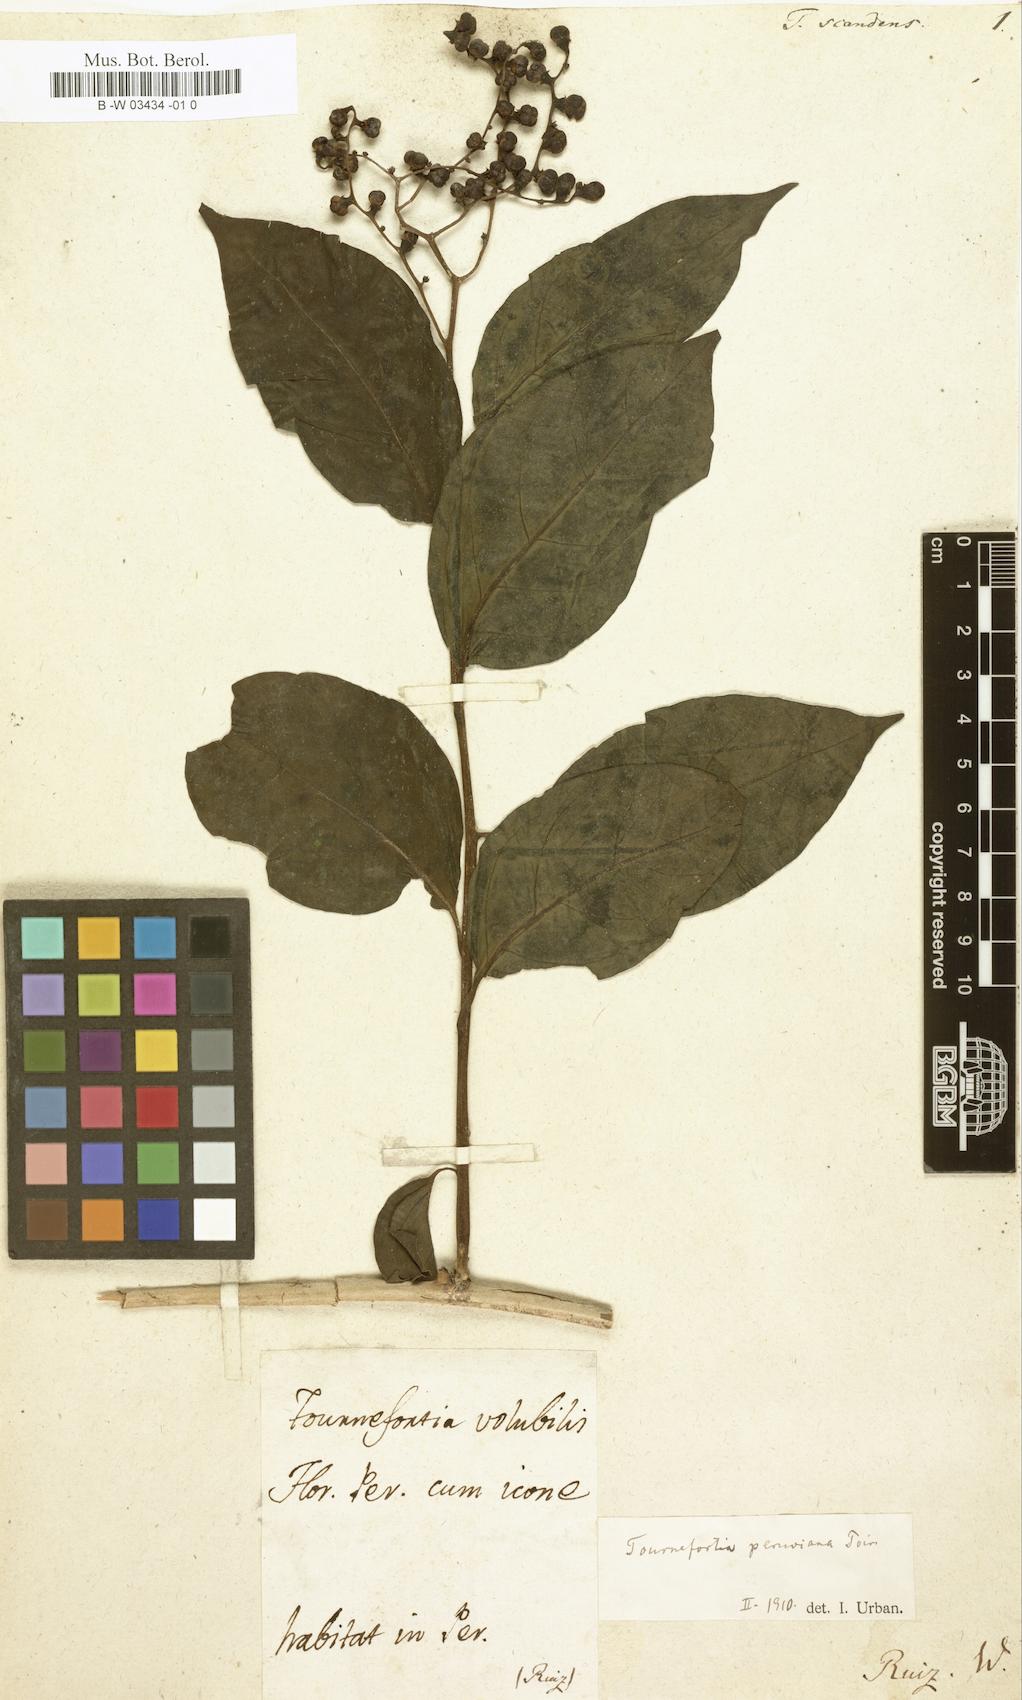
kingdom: Plantae
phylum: Tracheophyta
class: Magnoliopsida
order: Boraginales
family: Heliotropiaceae
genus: Myriopus
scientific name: Myriopus
